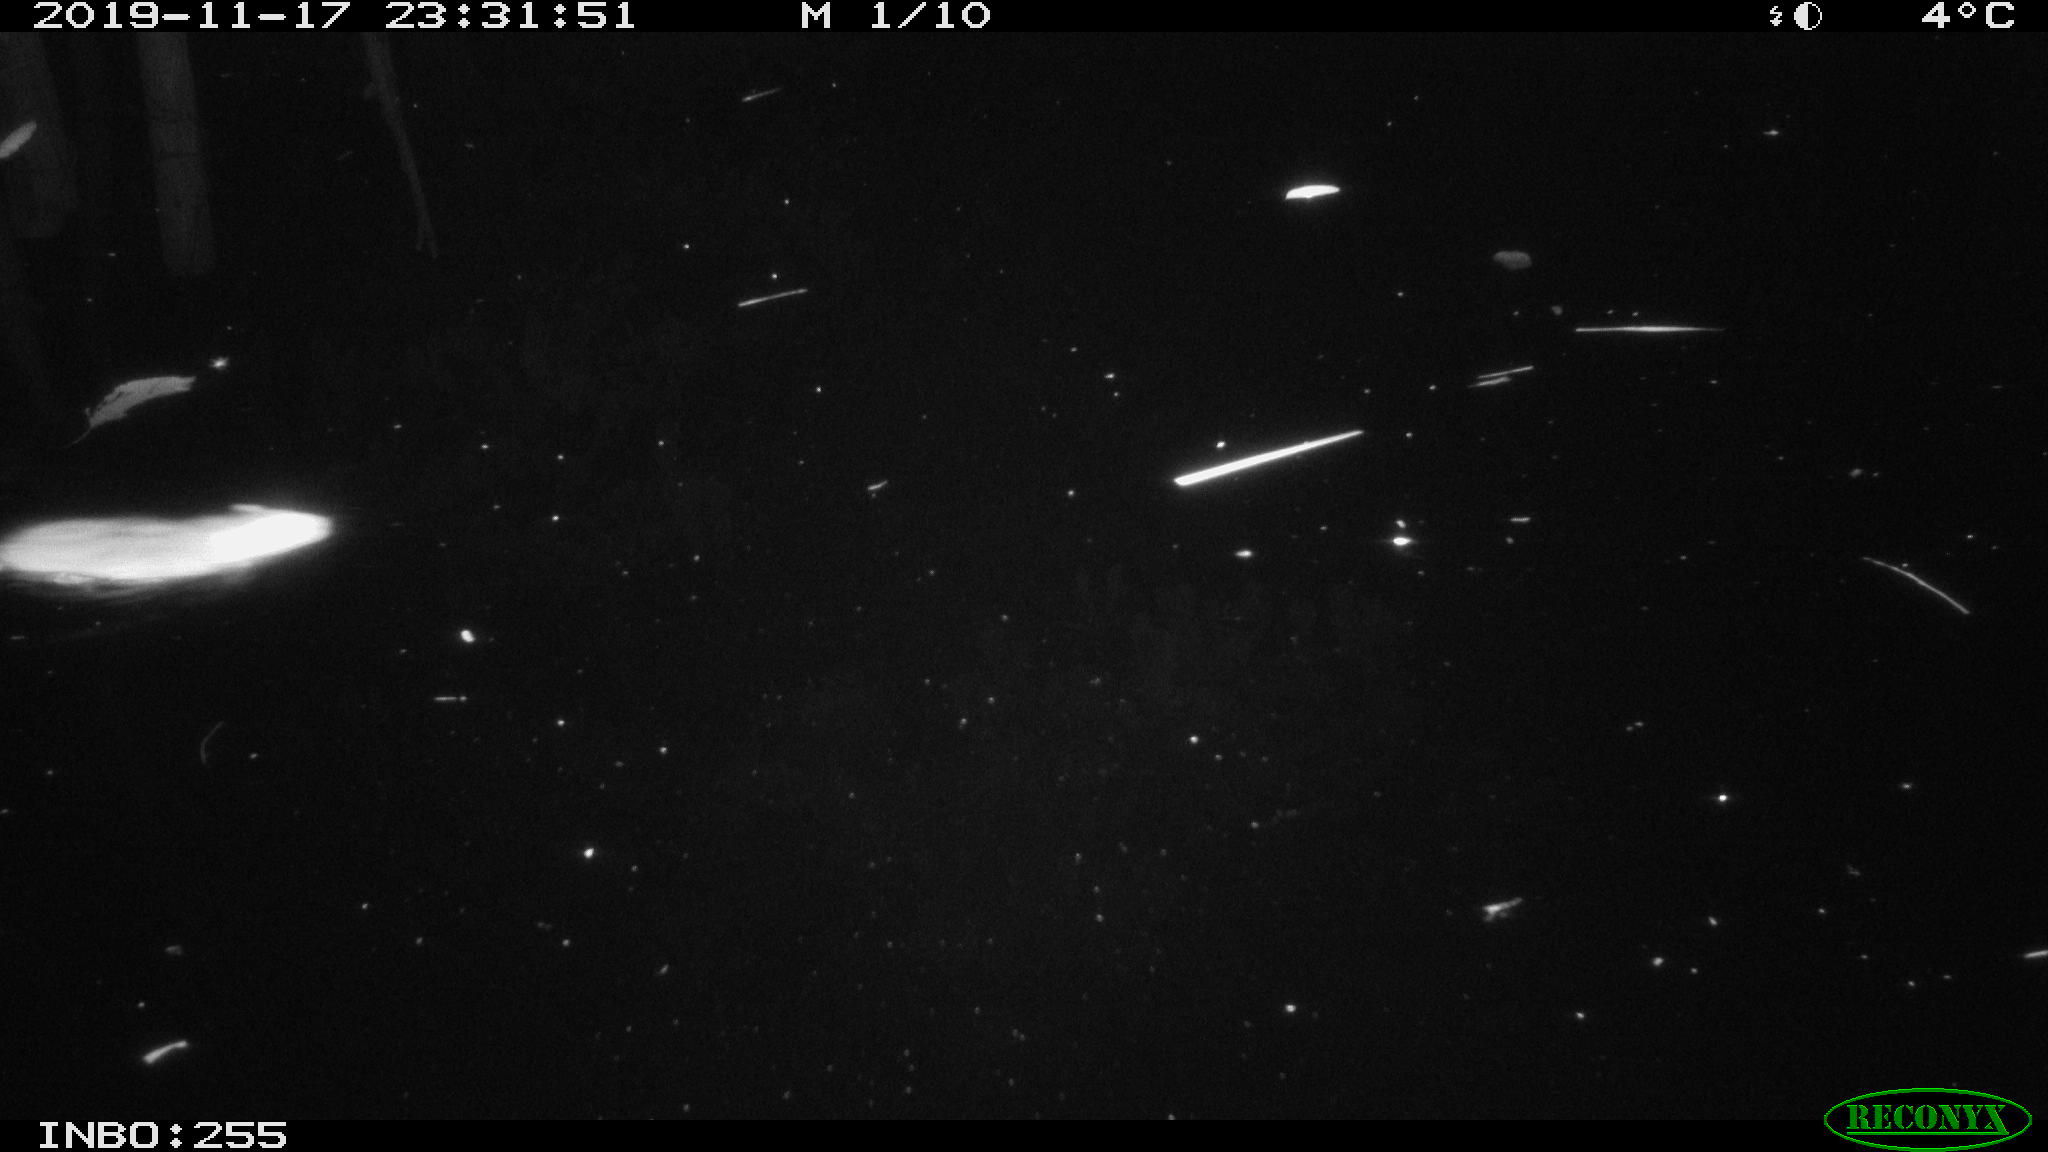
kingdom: Animalia
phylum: Chordata
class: Mammalia
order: Rodentia
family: Muridae
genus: Rattus
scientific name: Rattus norvegicus
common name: Brown rat
